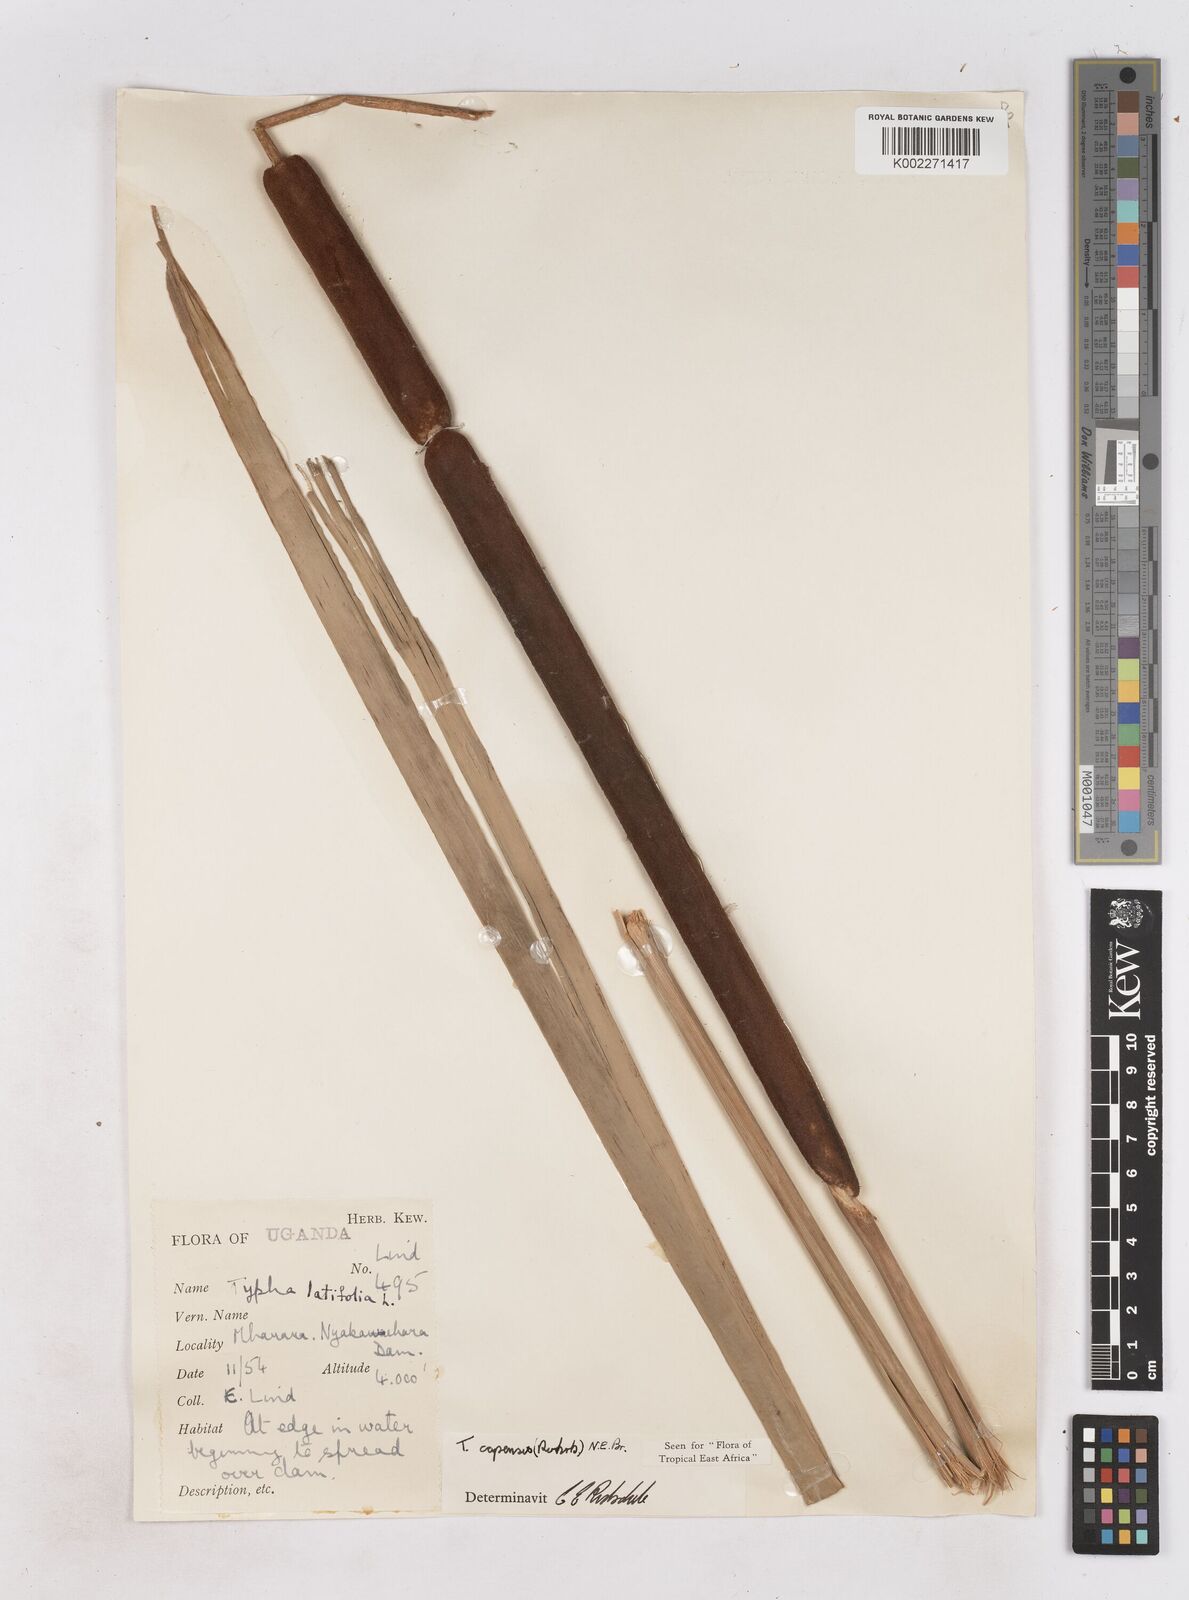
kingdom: Plantae
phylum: Tracheophyta
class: Liliopsida
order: Poales
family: Typhaceae
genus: Typha
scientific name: Typha capensis
